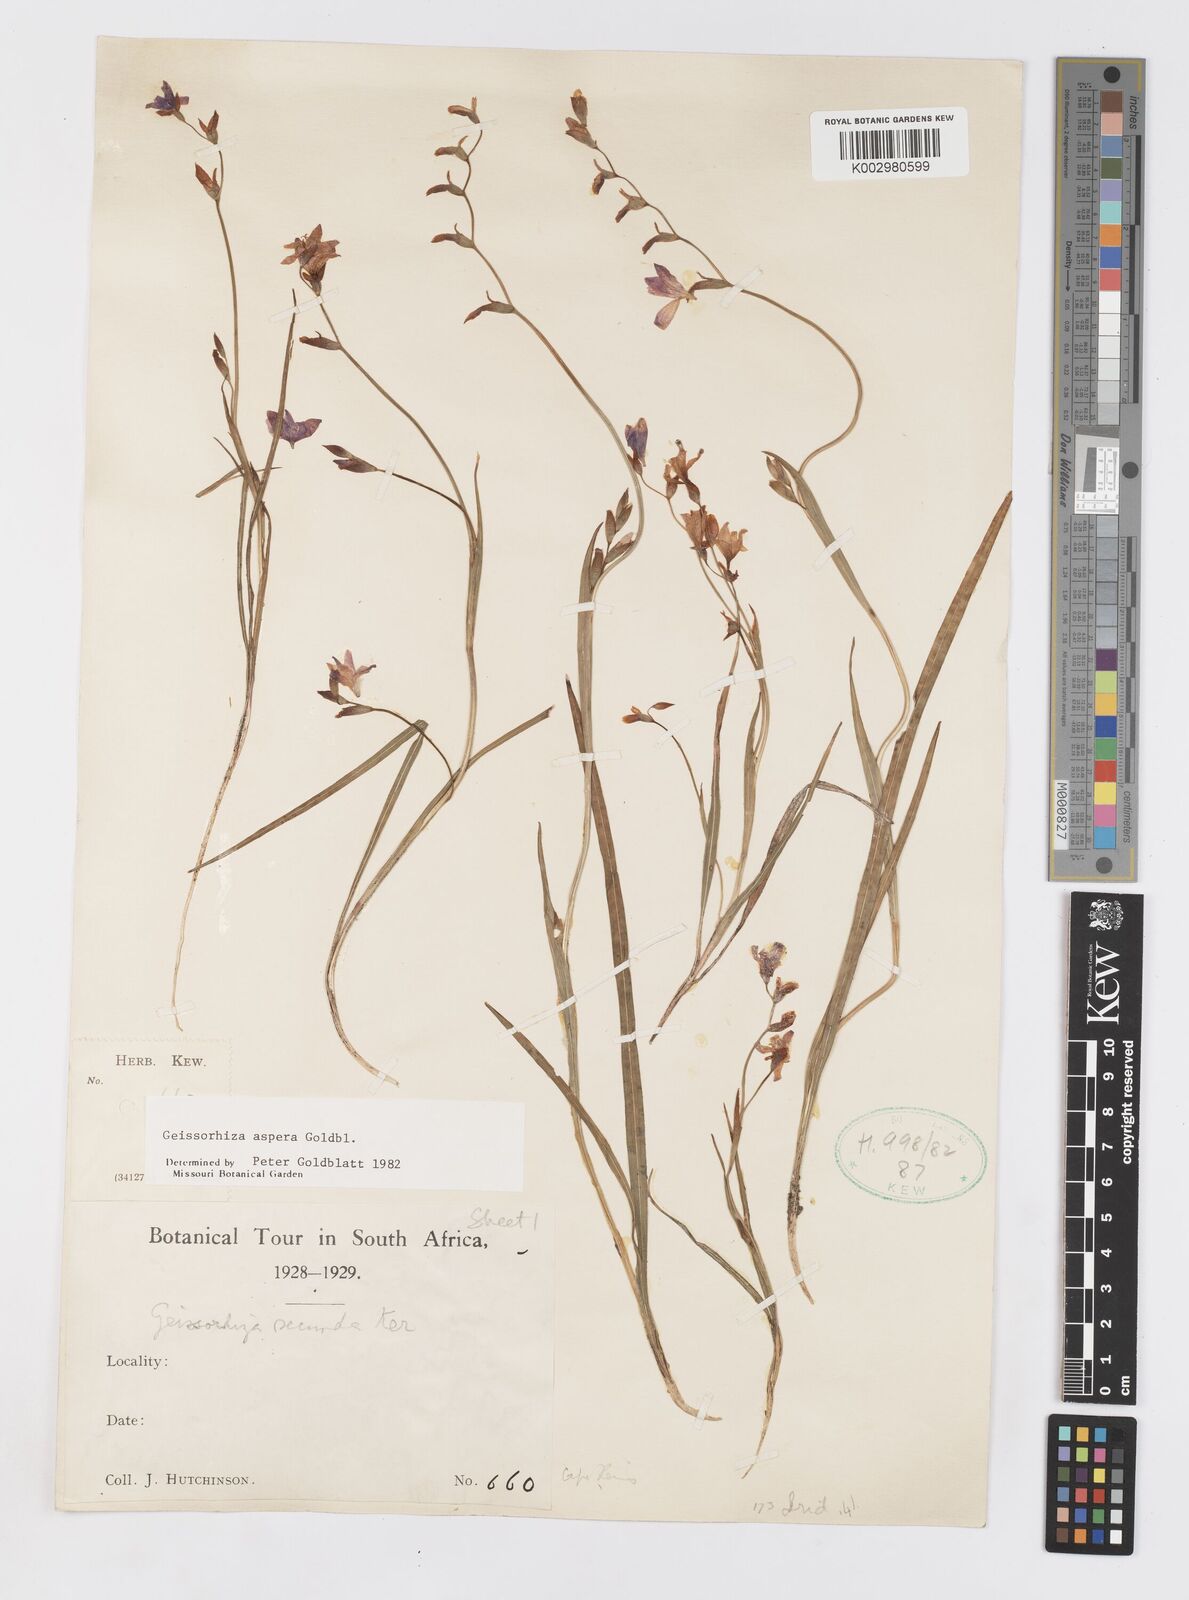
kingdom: Plantae
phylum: Tracheophyta
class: Liliopsida
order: Asparagales
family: Iridaceae
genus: Geissorhiza
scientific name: Geissorhiza aspera
